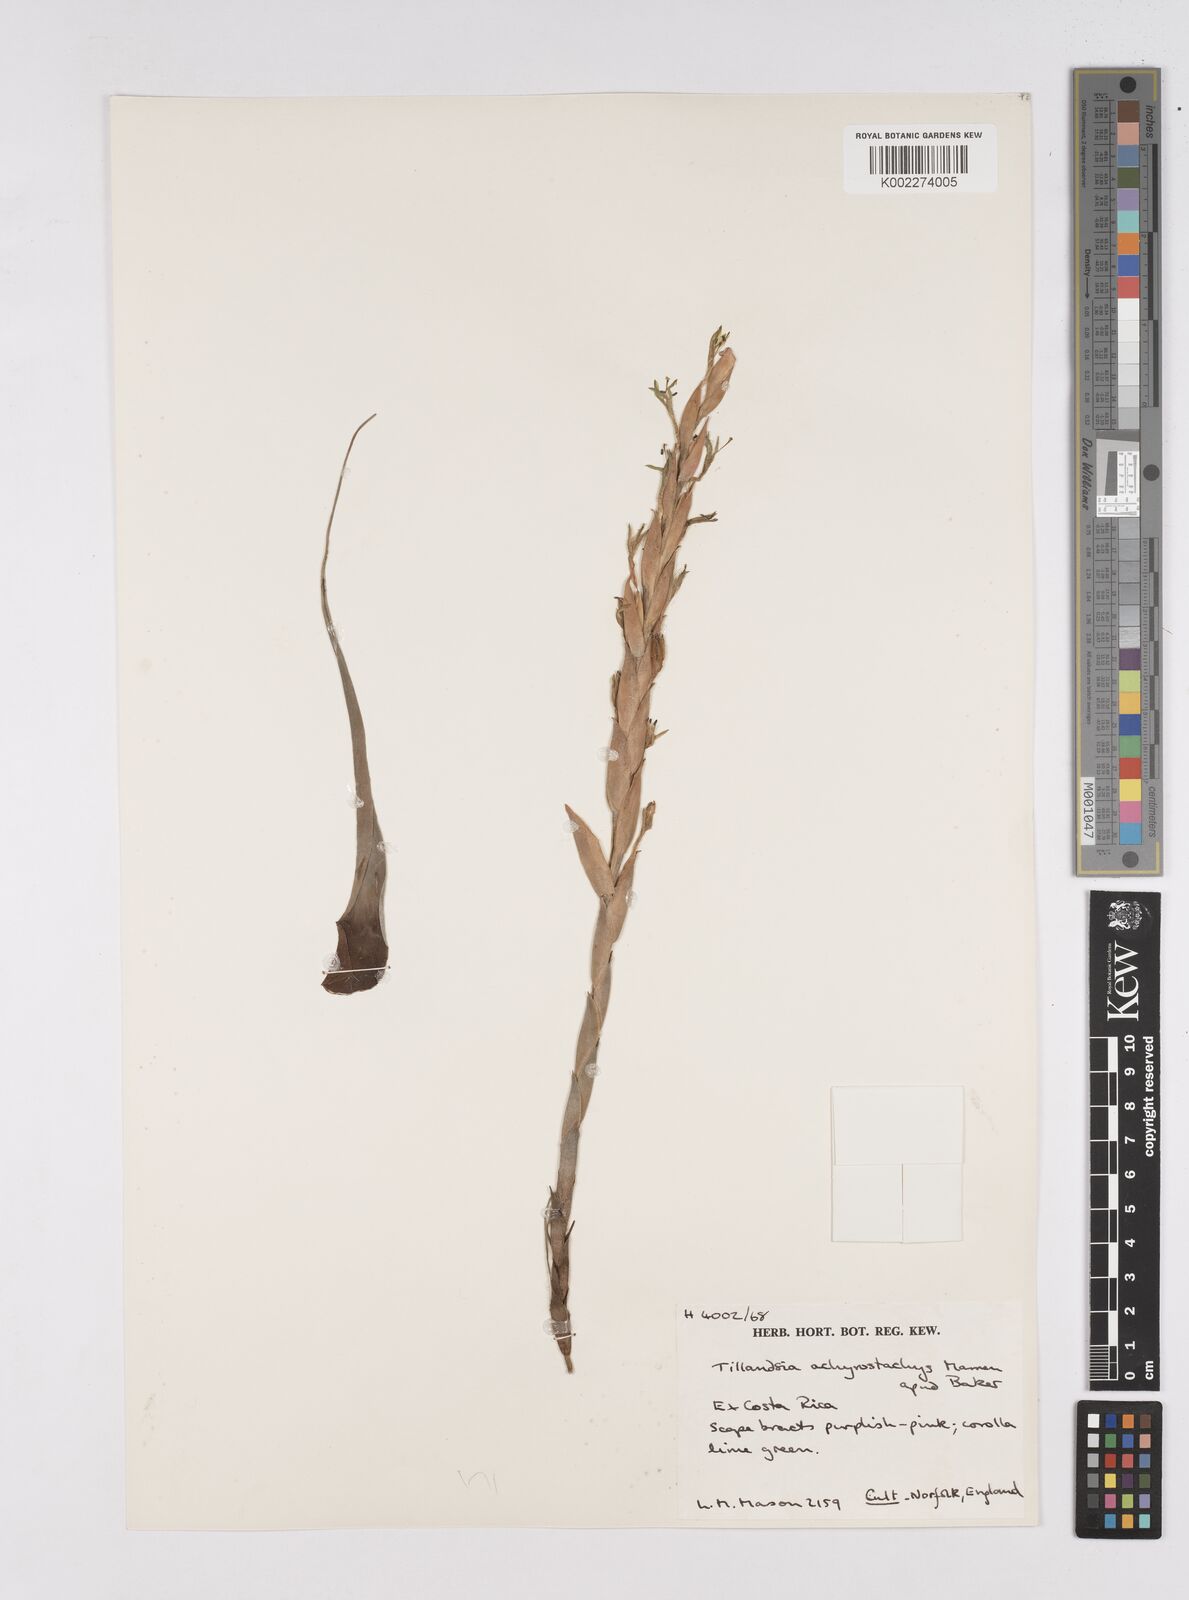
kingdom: Plantae
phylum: Tracheophyta
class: Liliopsida
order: Poales
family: Bromeliaceae
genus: Tillandsia
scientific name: Tillandsia achyrostachys
